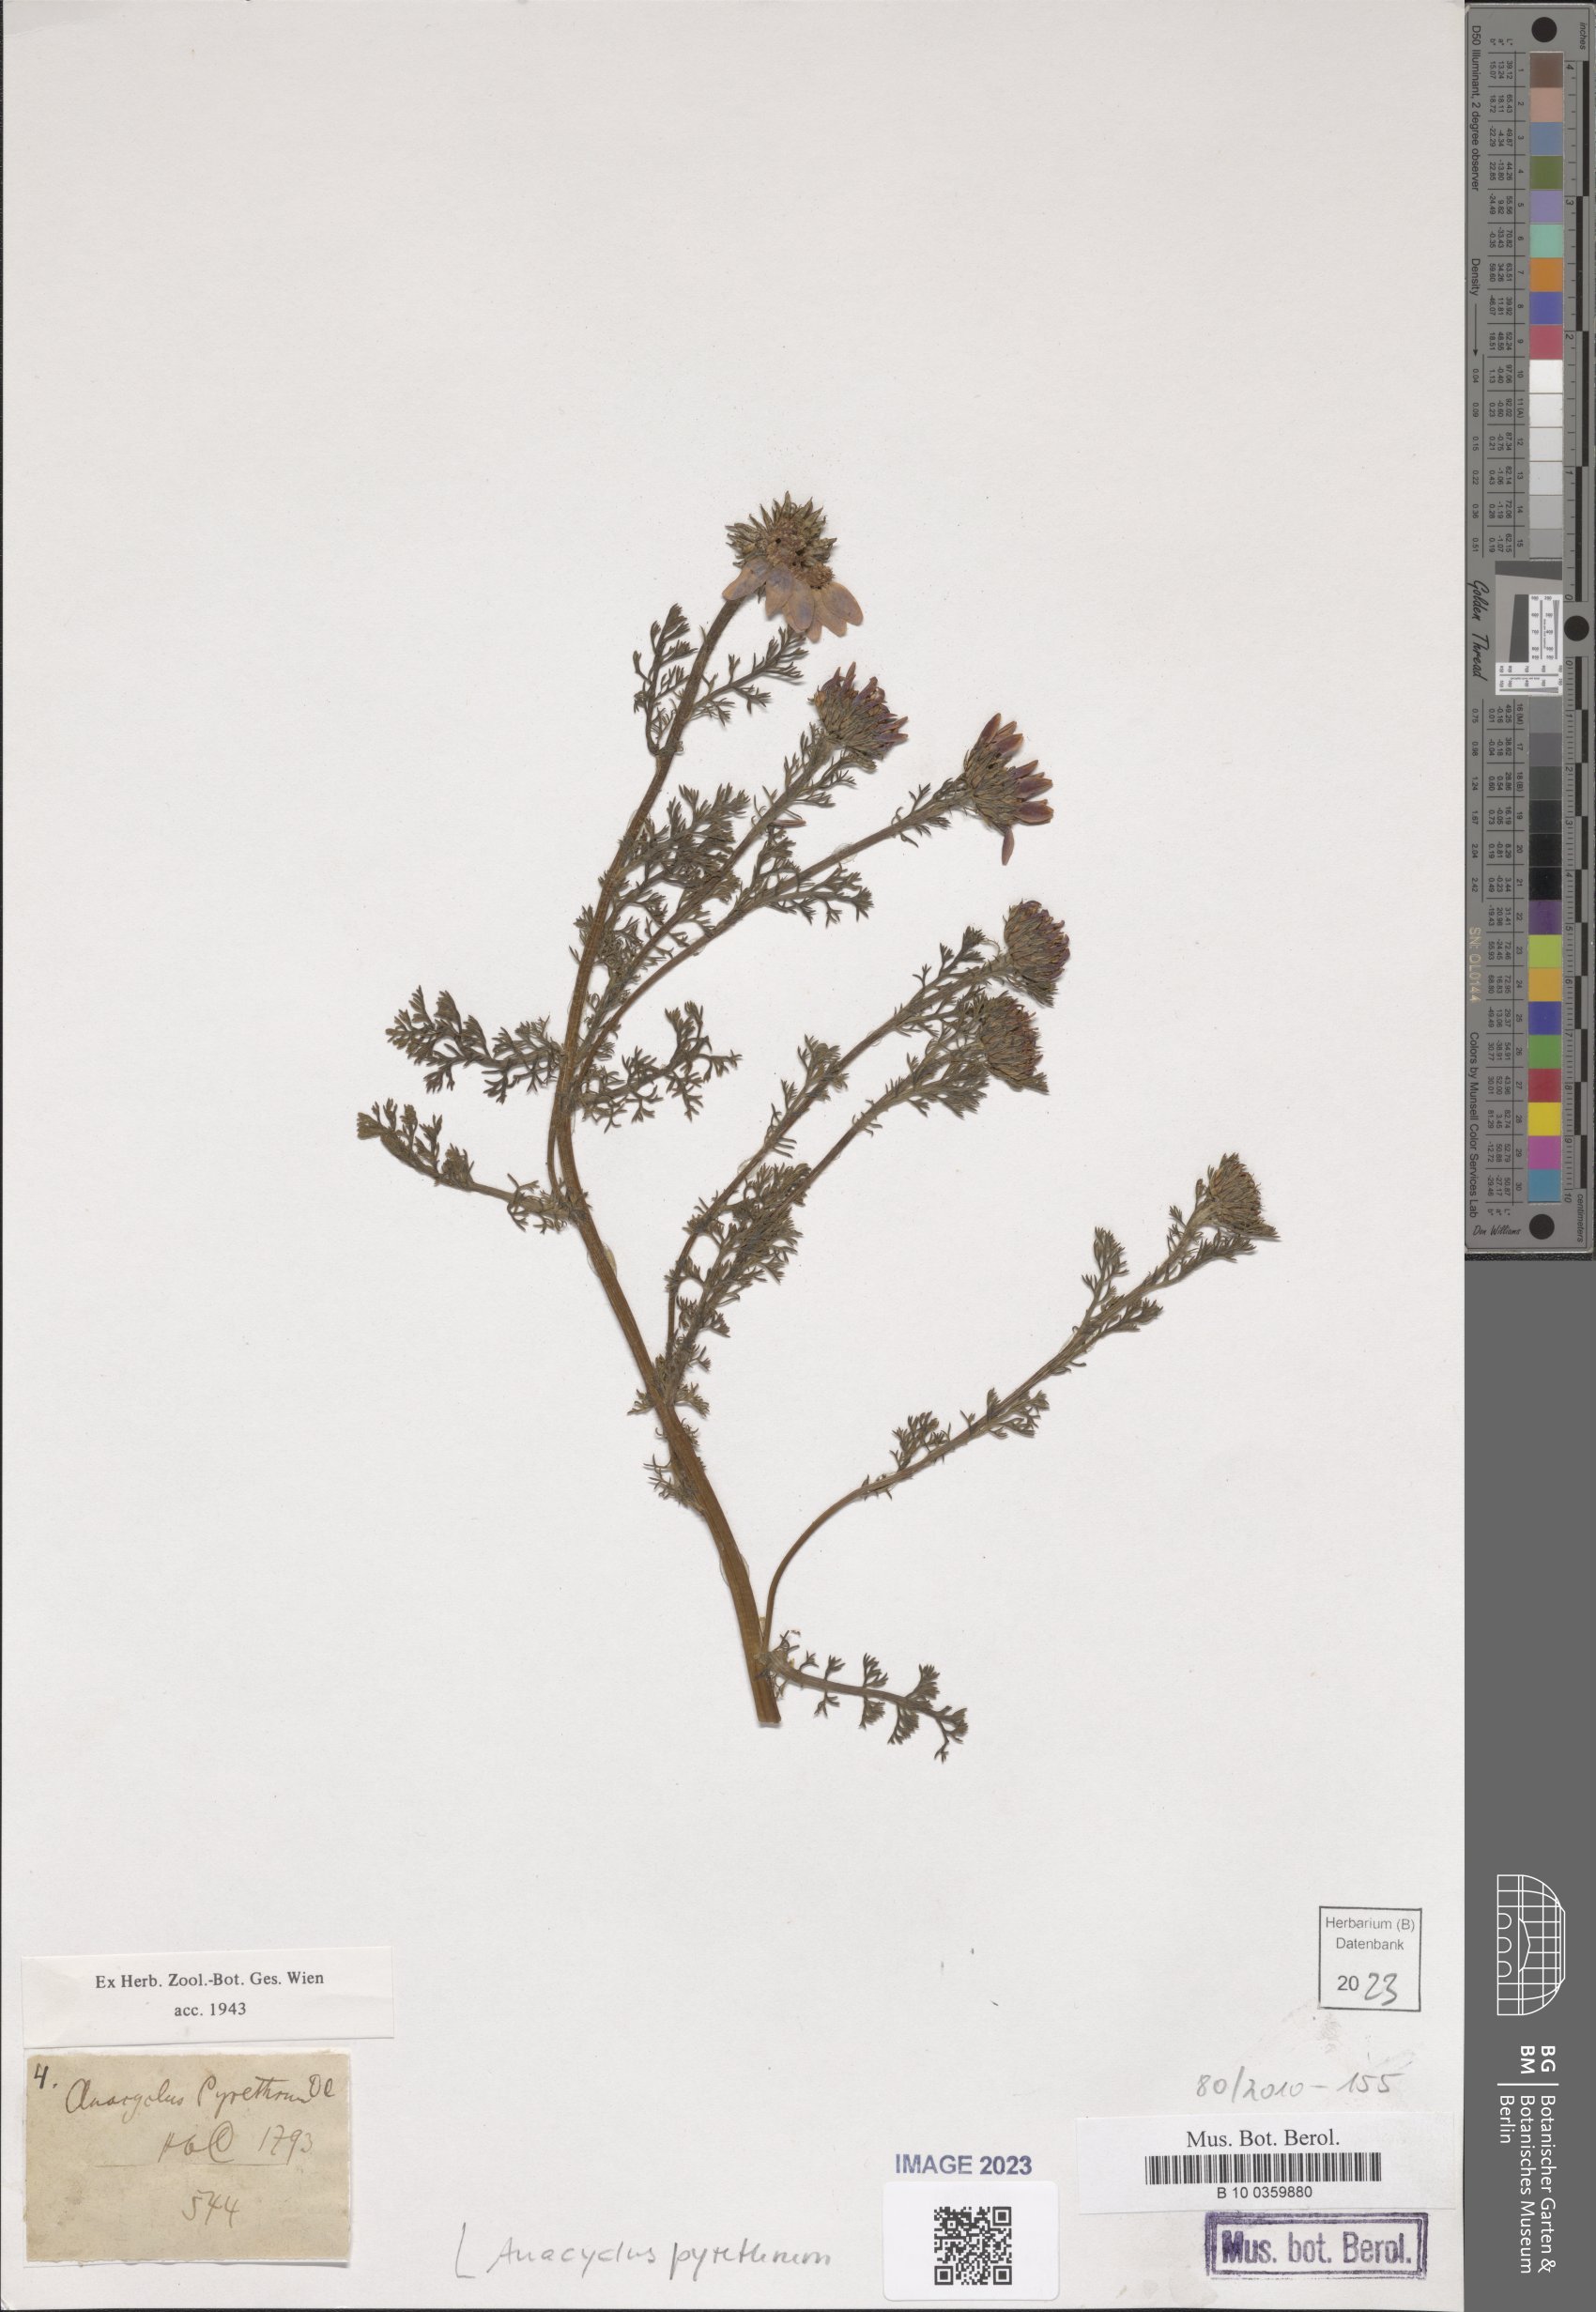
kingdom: Plantae
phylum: Tracheophyta
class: Magnoliopsida
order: Asterales
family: Asteraceae
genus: Anacyclus
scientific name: Anacyclus pyrethrum
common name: Mt. atlas daisy
